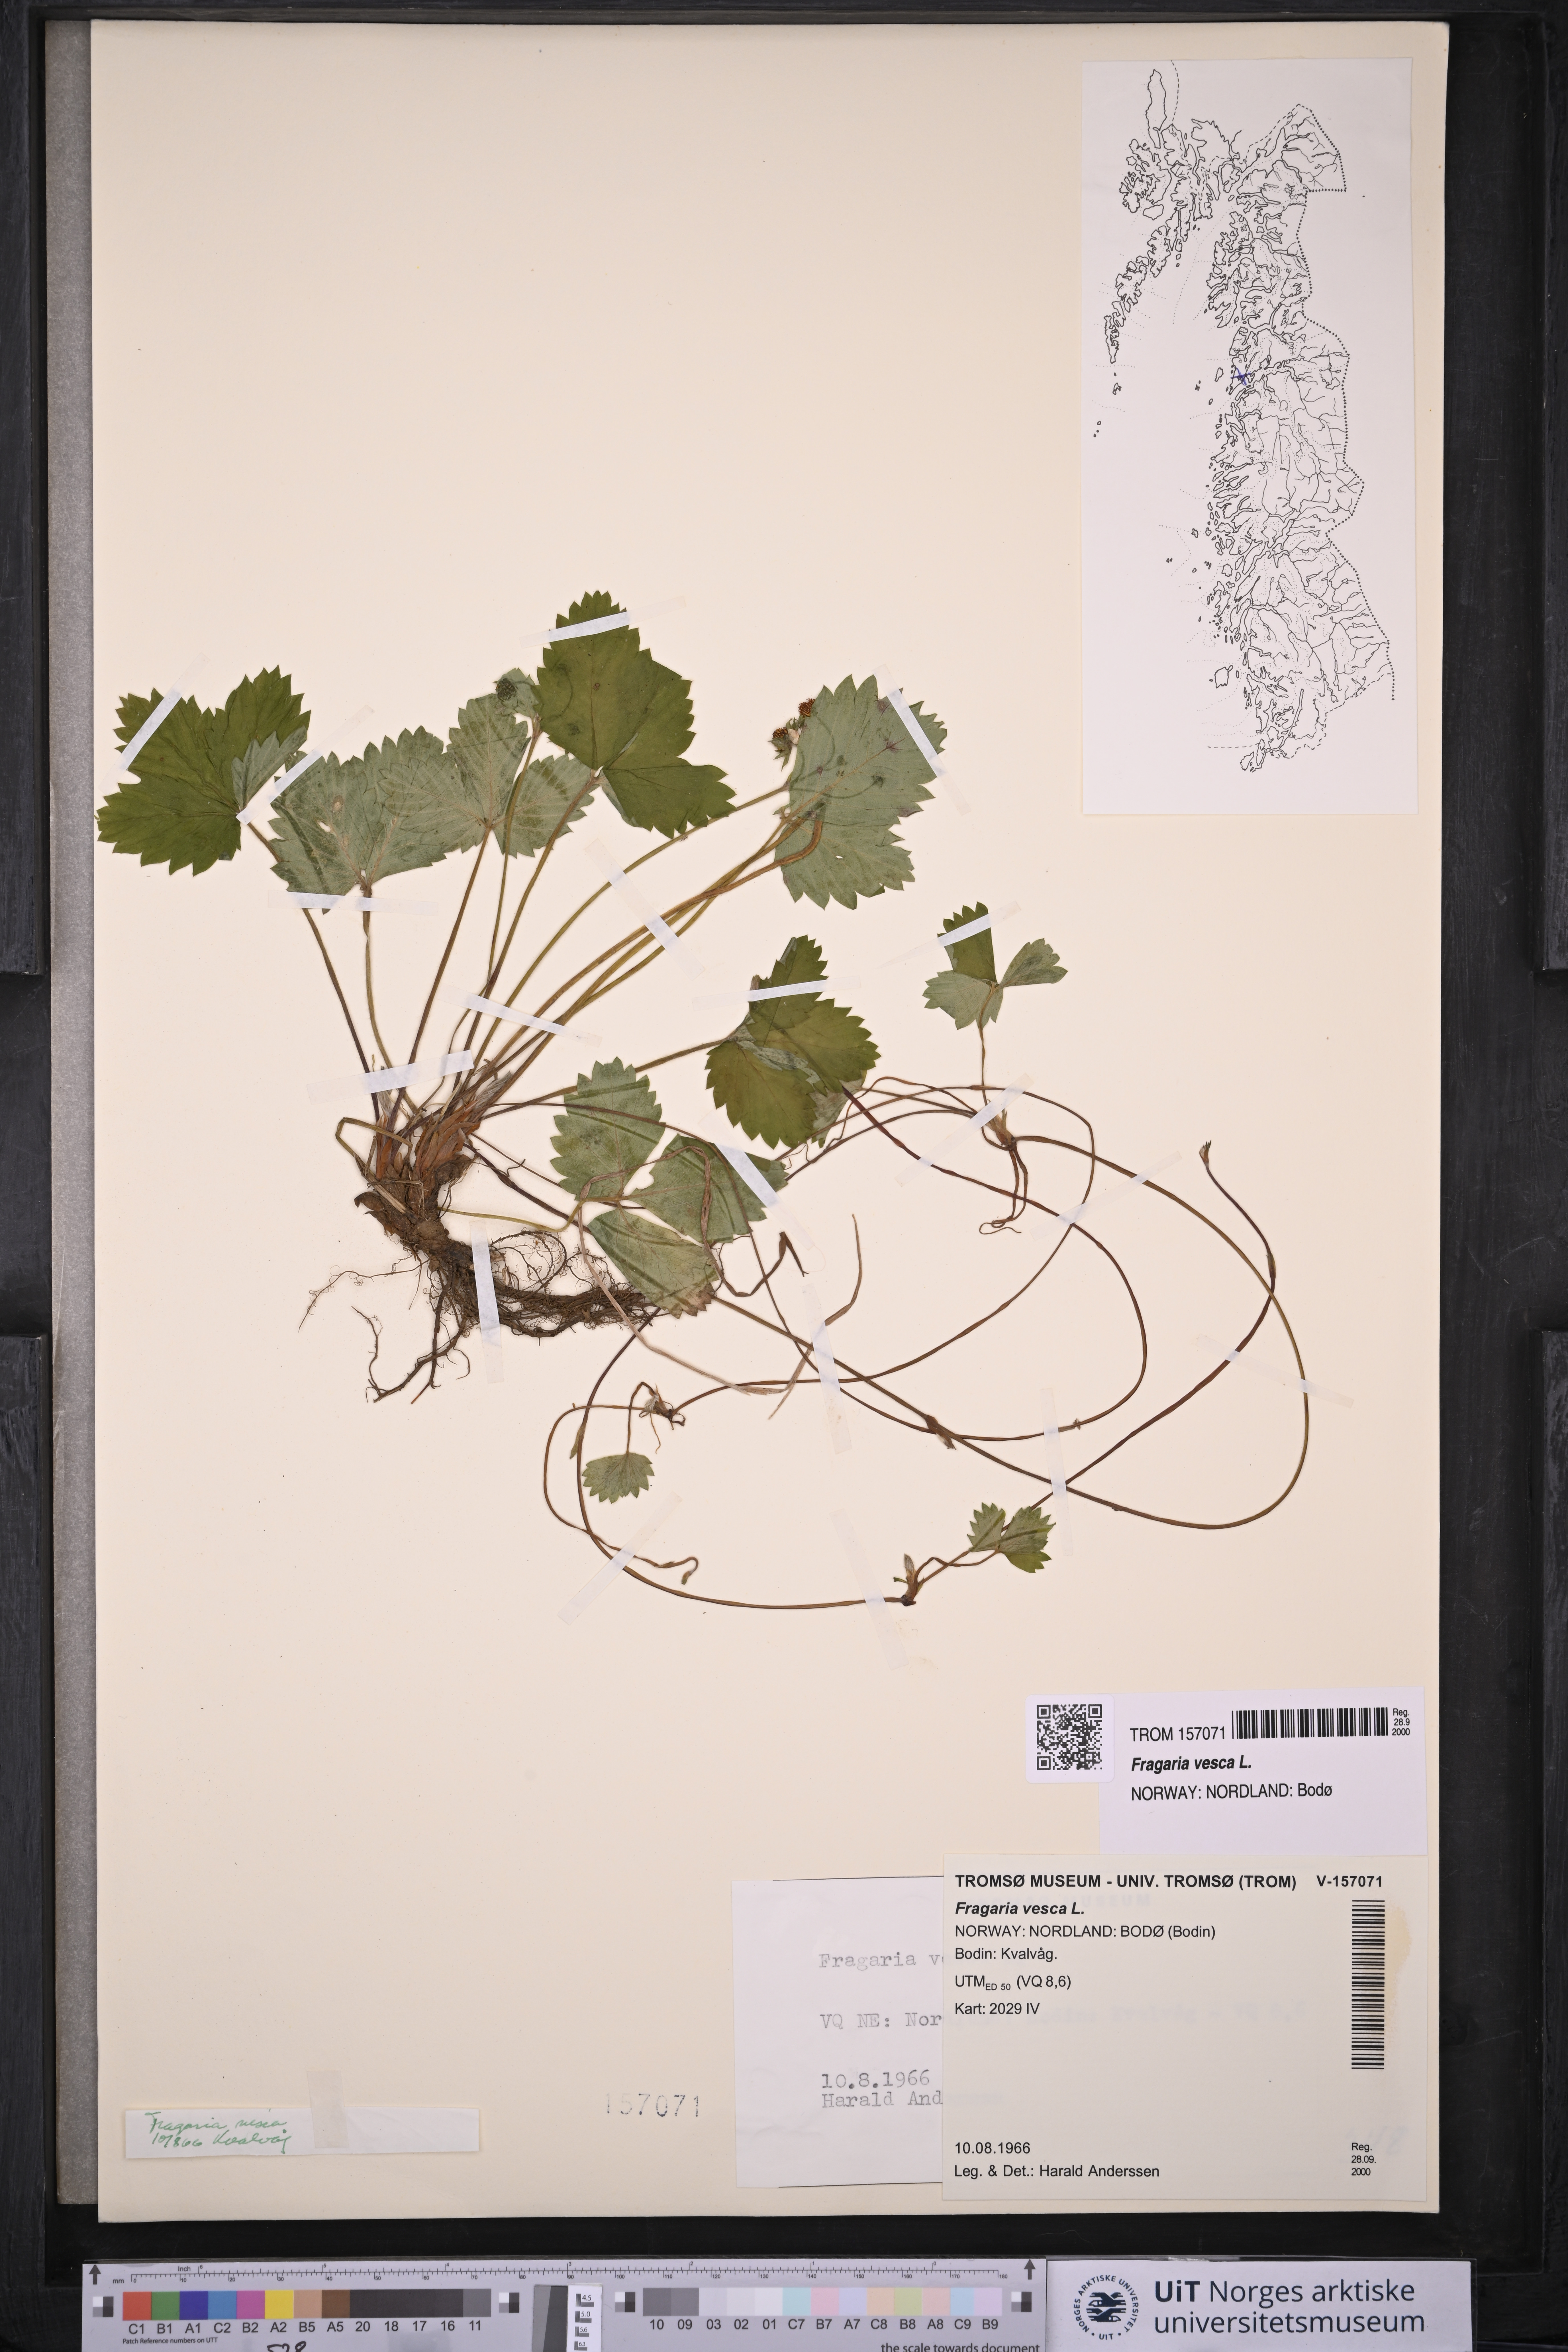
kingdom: Plantae
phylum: Tracheophyta
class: Magnoliopsida
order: Rosales
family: Rosaceae
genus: Fragaria
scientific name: Fragaria vesca
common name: Wild strawberry
